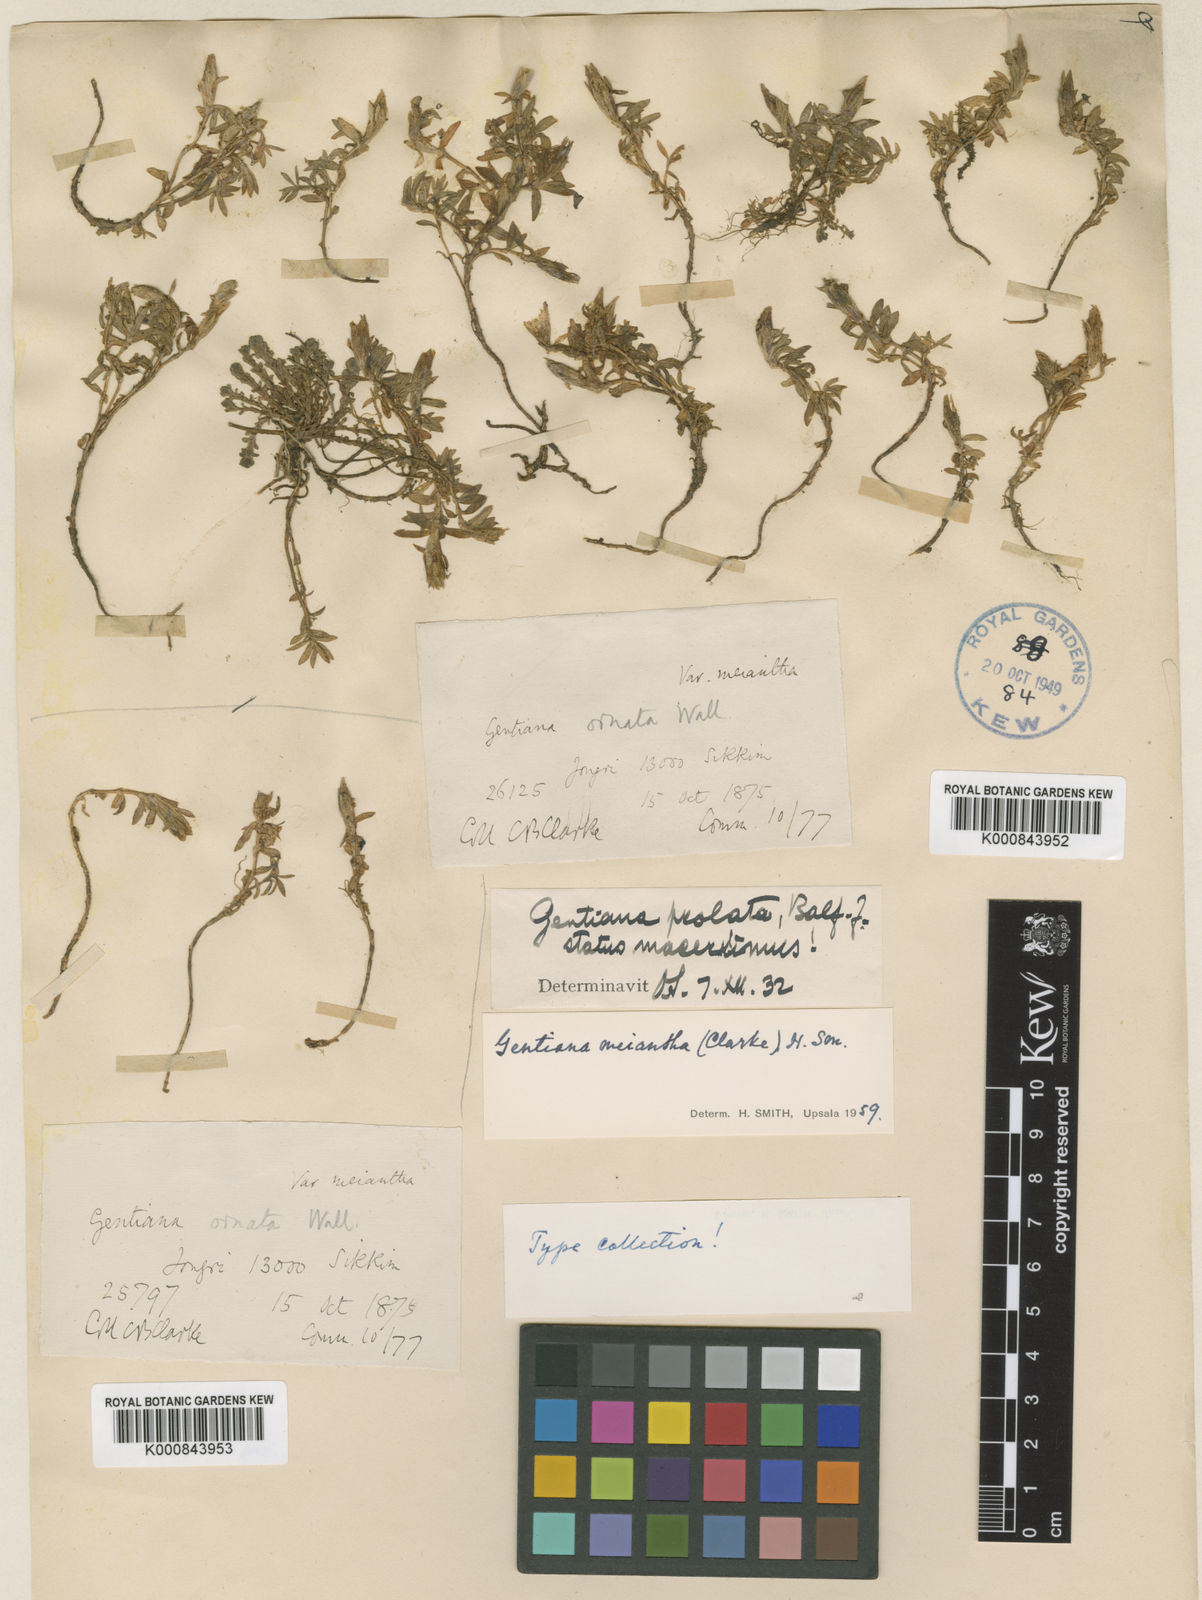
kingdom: Plantae
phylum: Tracheophyta
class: Magnoliopsida
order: Gentianales
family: Gentianaceae
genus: Gentiana
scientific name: Gentiana meiantha
